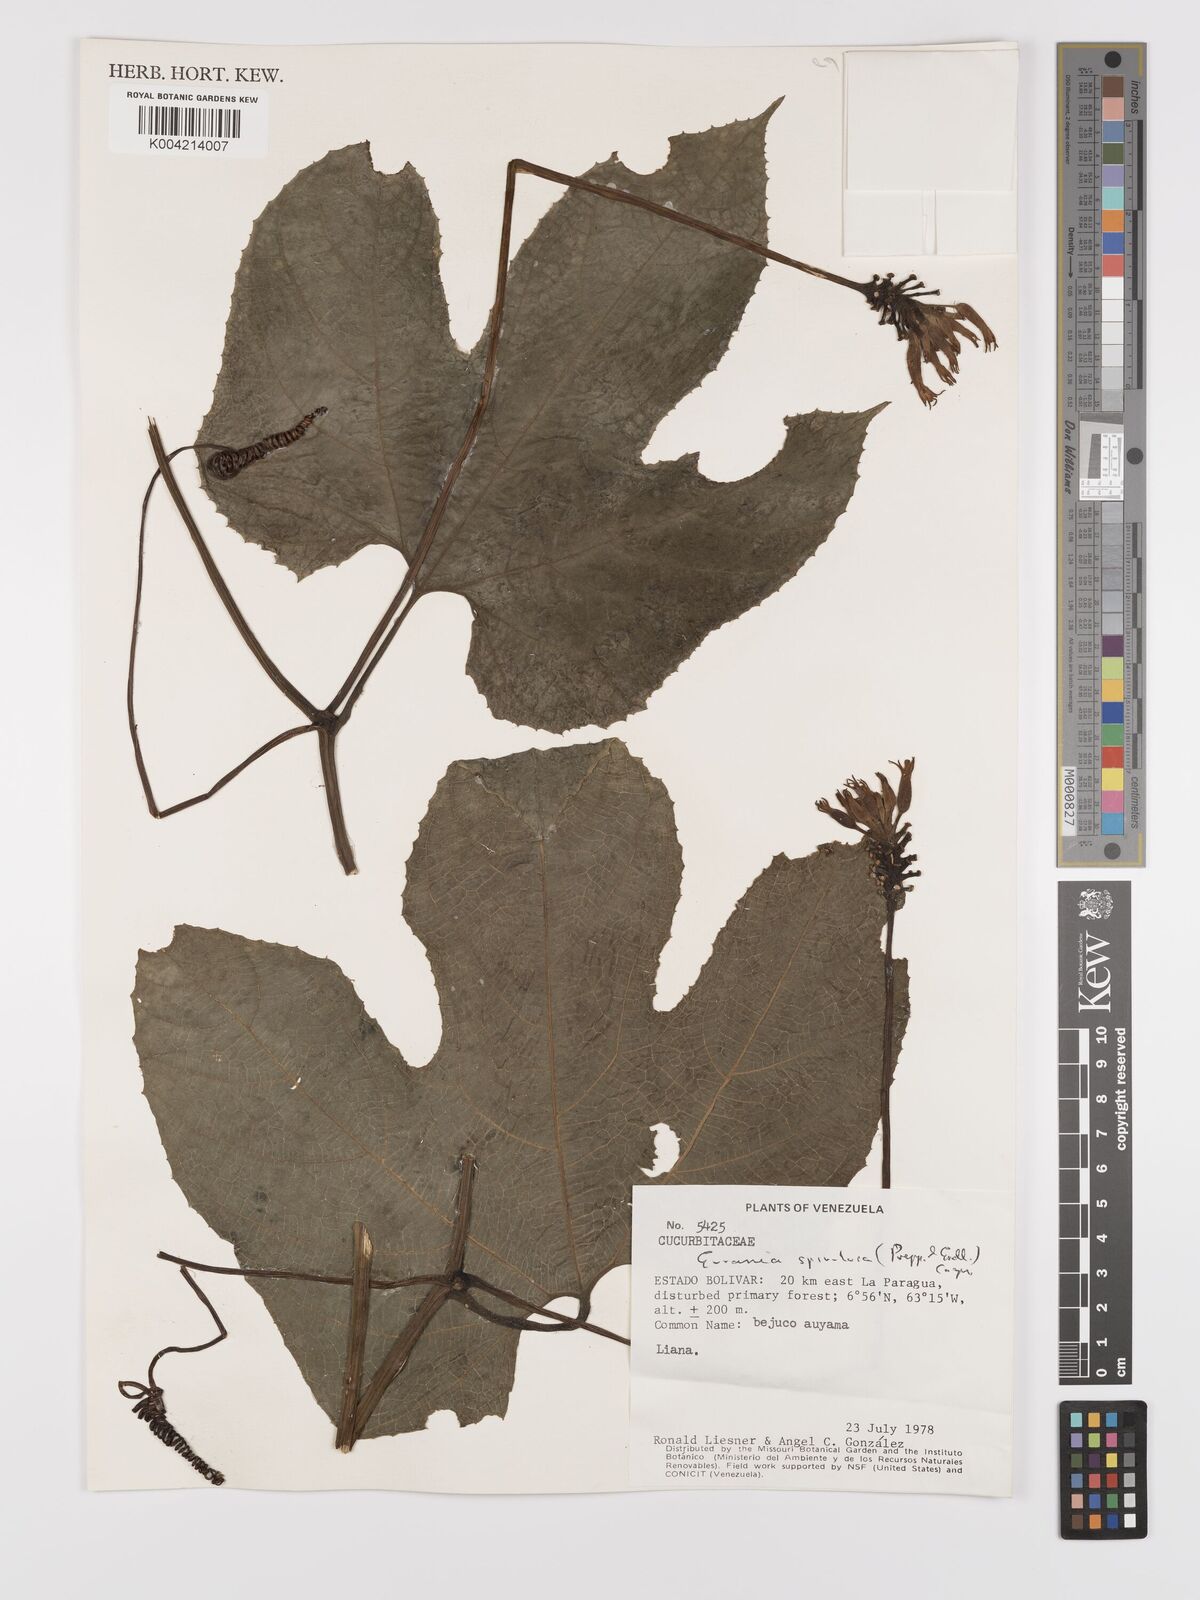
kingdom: Plantae
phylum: Tracheophyta
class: Magnoliopsida
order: Cucurbitales
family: Cucurbitaceae
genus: Gurania
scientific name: Gurania lobata
